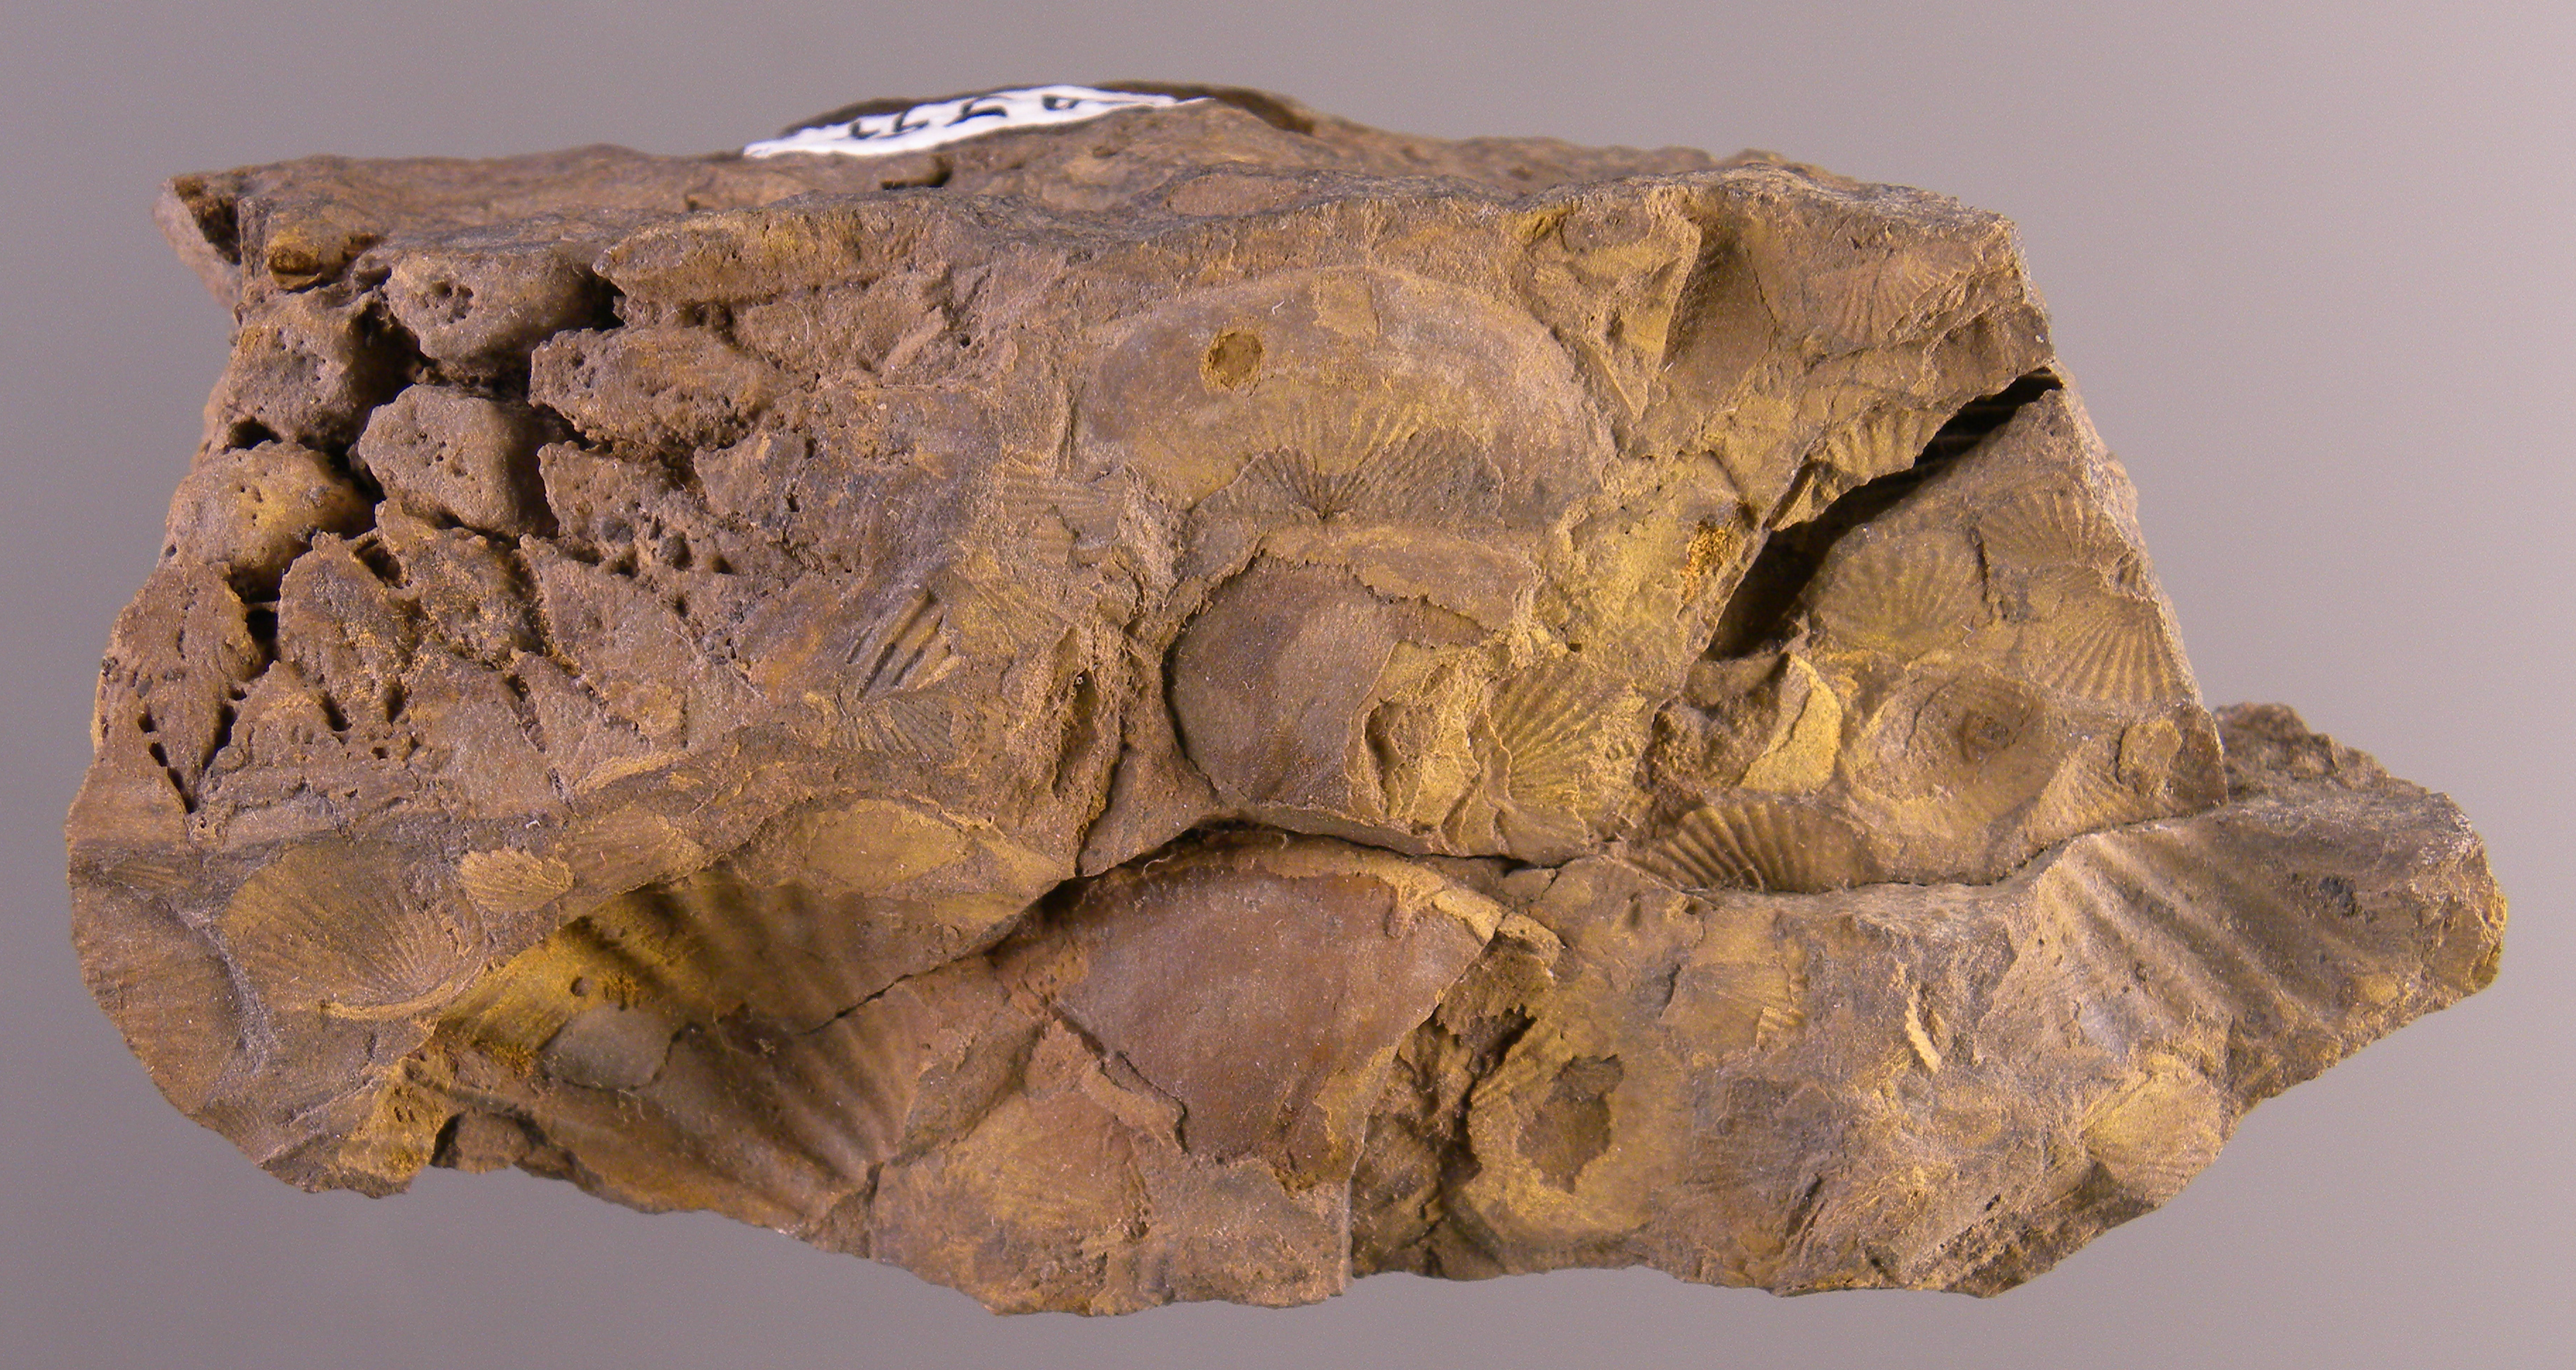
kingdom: Animalia
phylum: Cnidaria
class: Anthozoa
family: Micheliniidae
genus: Pleurodictyum
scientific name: Pleurodictyum
